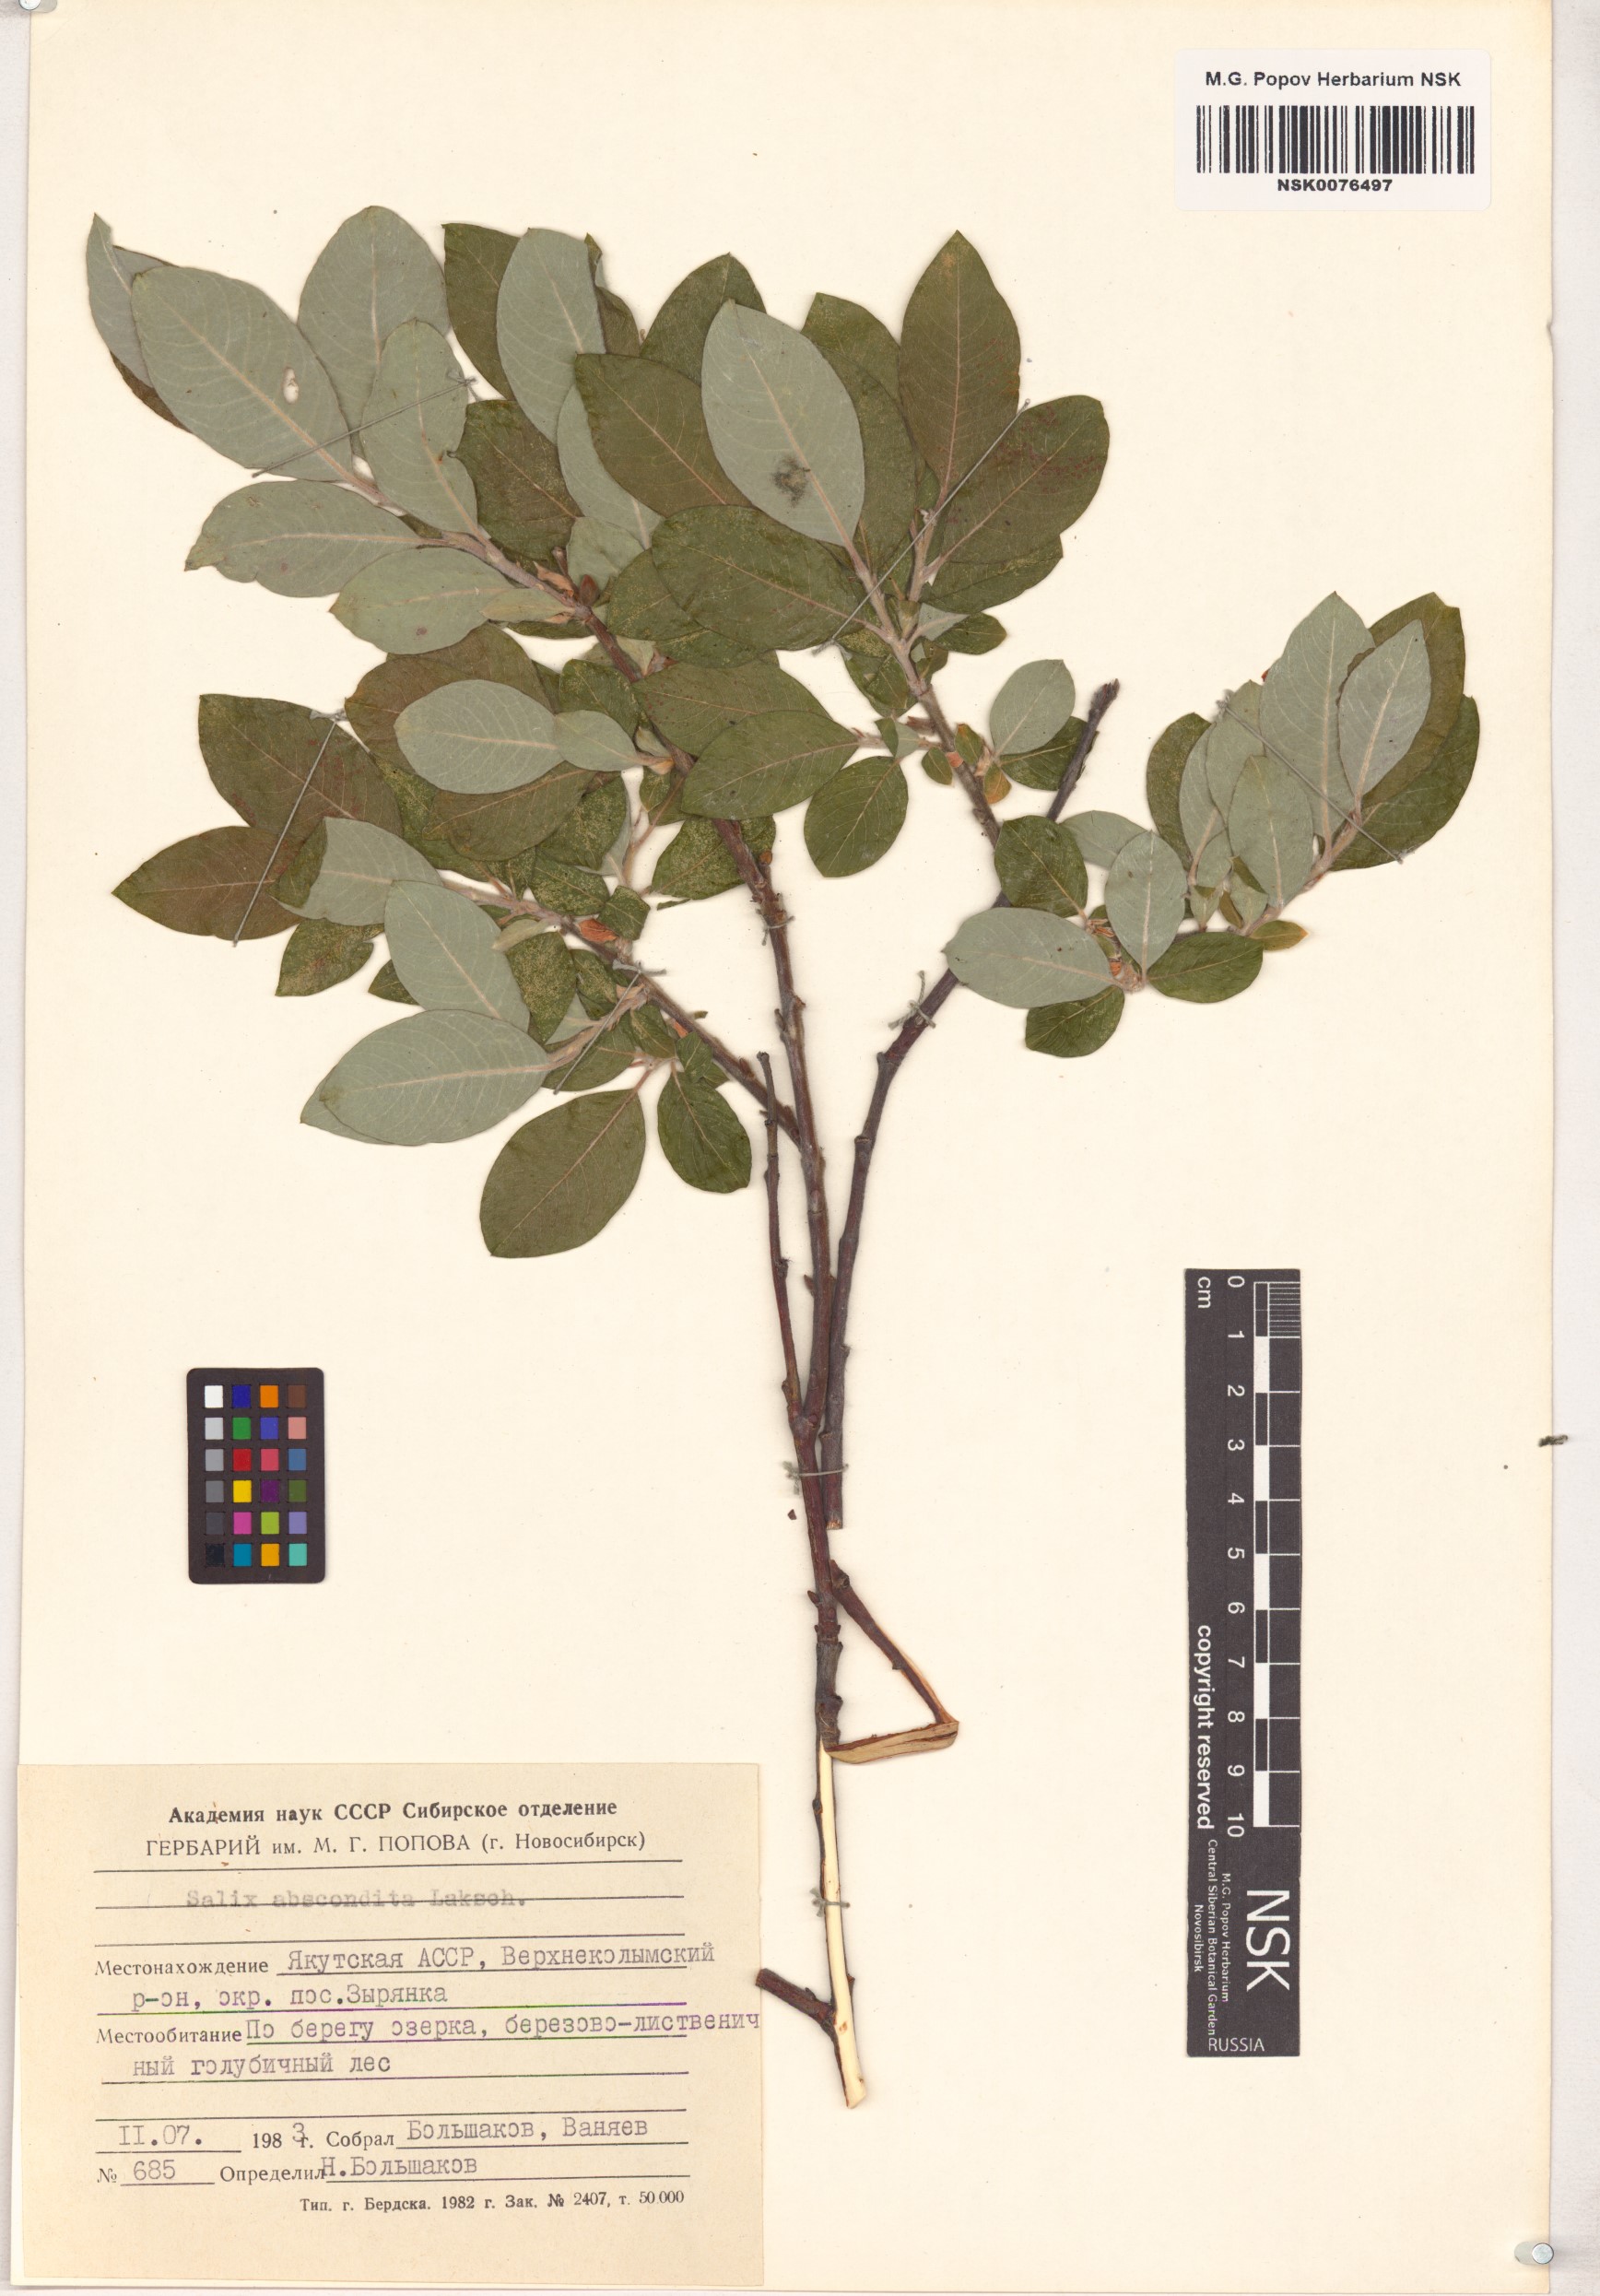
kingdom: Plantae
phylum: Tracheophyta
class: Magnoliopsida
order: Malpighiales
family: Salicaceae
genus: Salix
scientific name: Salix abscondita
